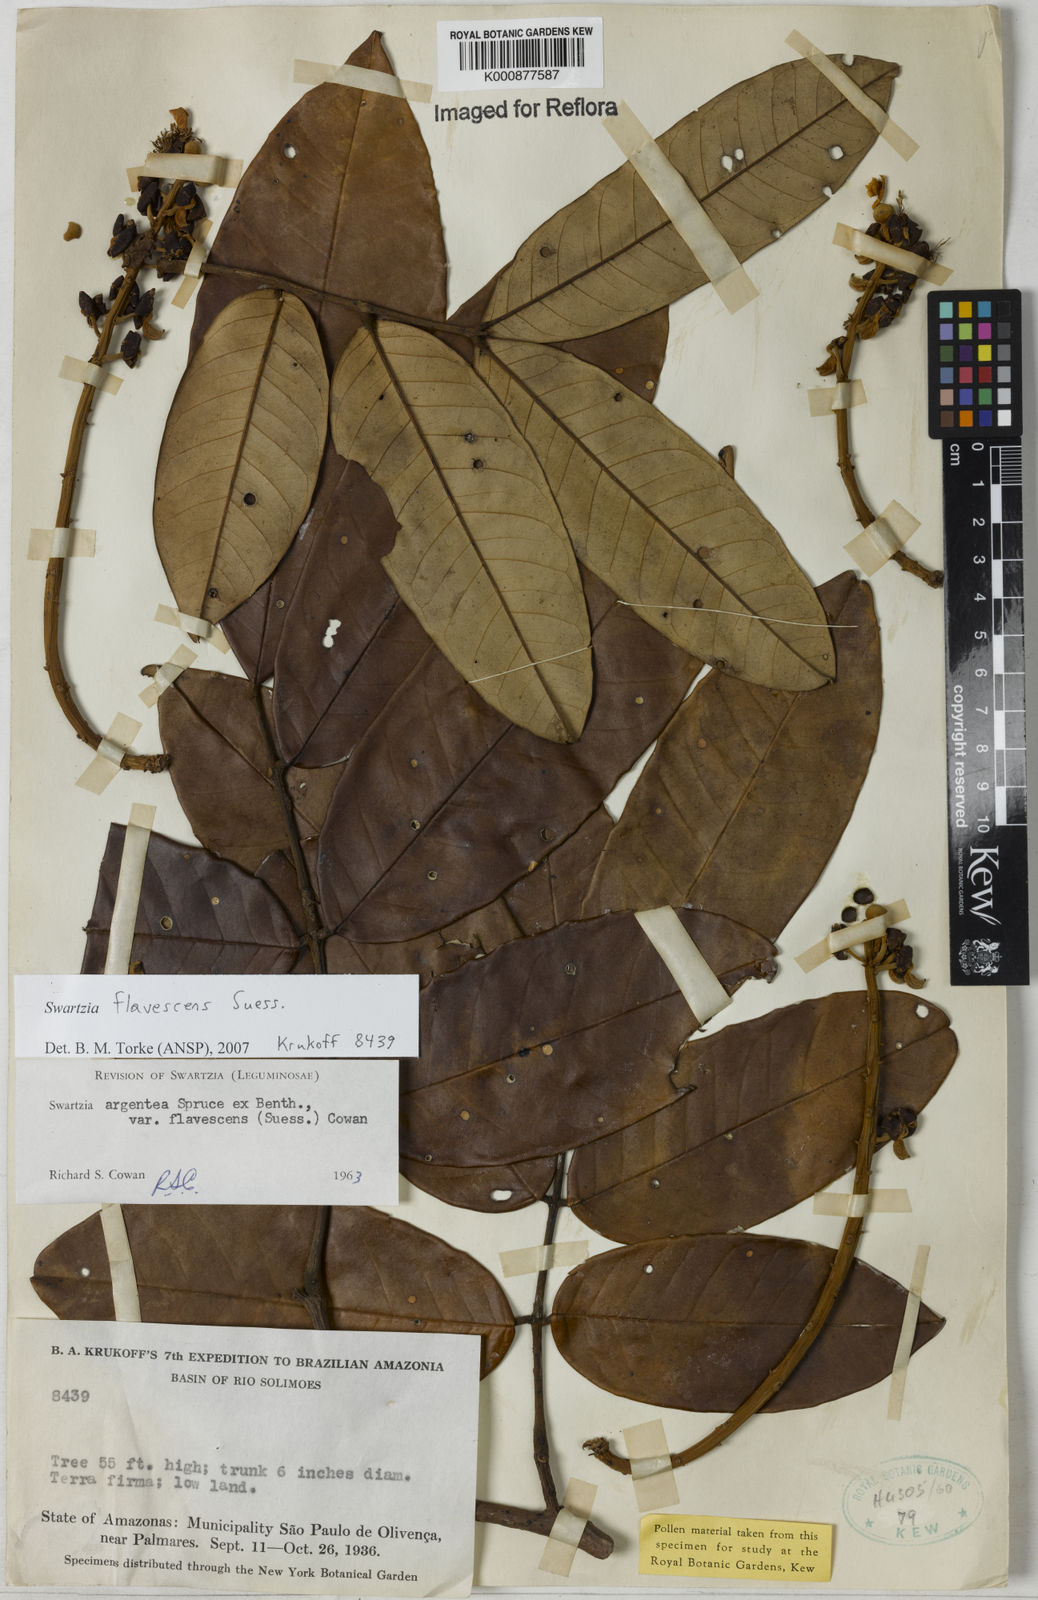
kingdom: Plantae
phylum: Tracheophyta
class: Magnoliopsida
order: Fabales
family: Fabaceae
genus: Swartzia
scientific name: Swartzia flavescens
